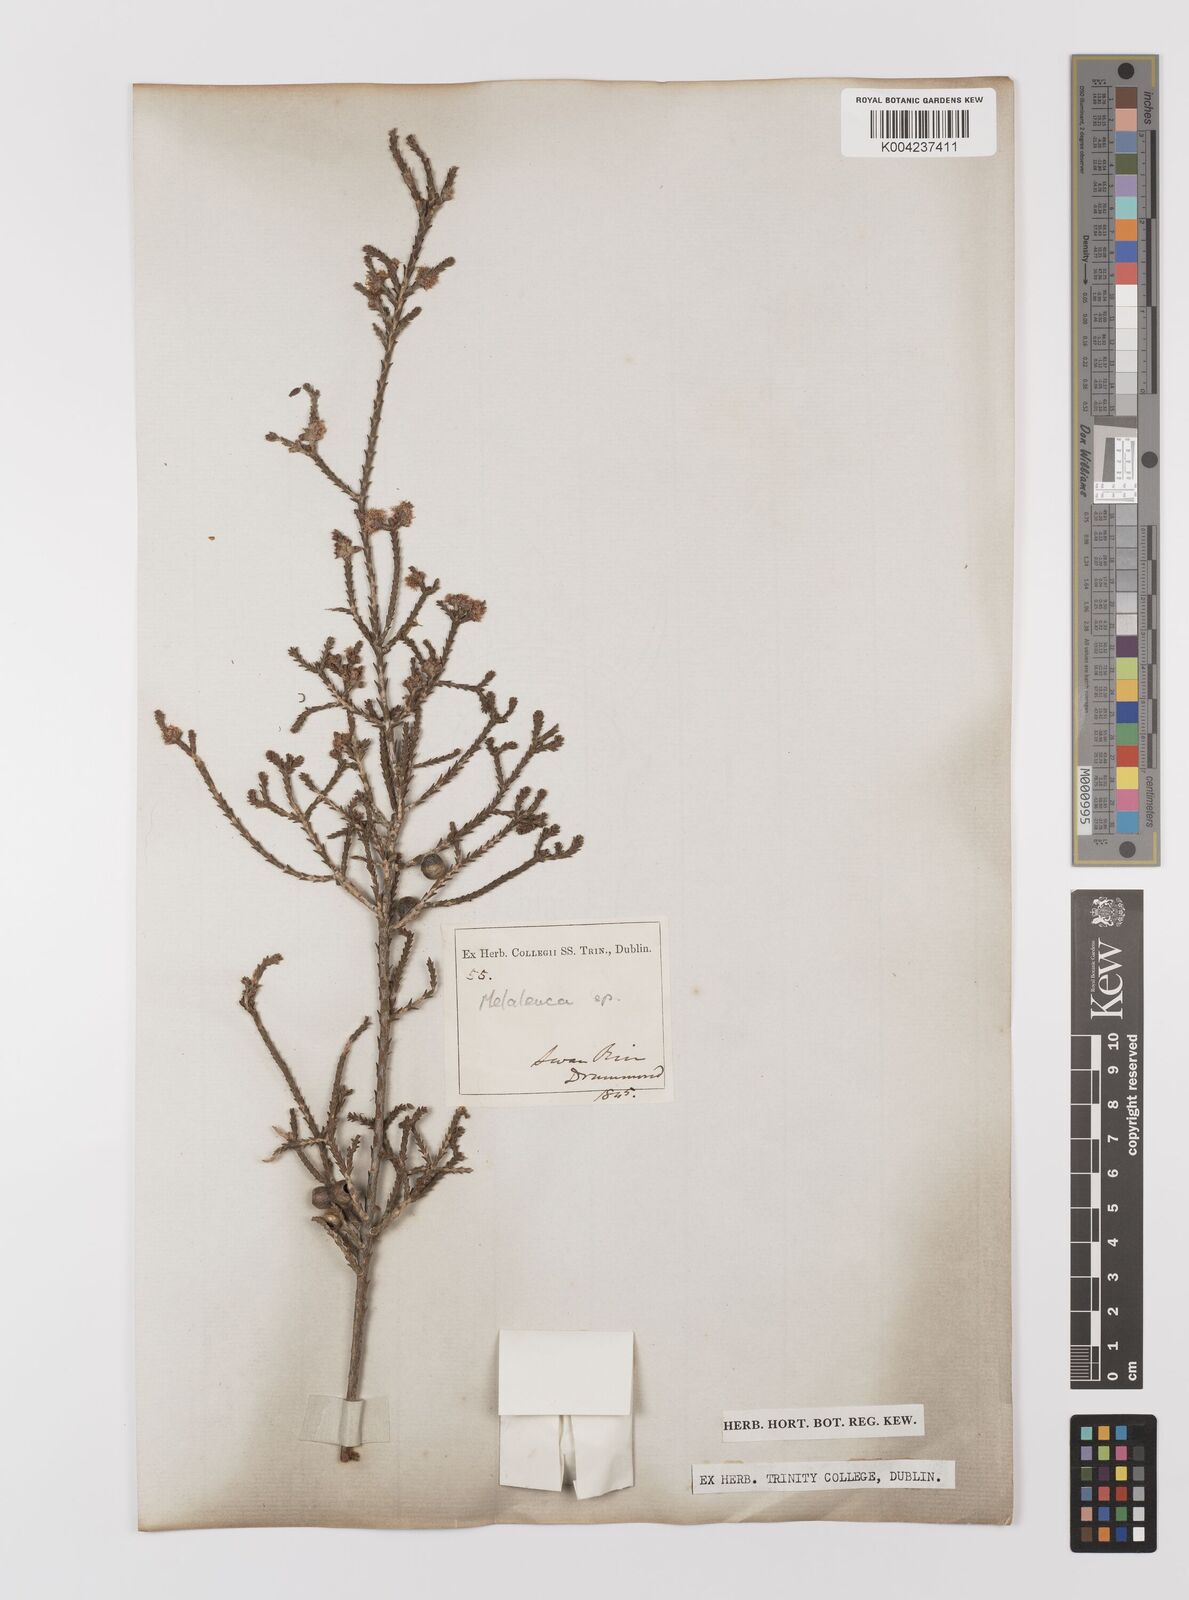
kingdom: Plantae
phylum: Tracheophyta
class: Magnoliopsida
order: Myrtales
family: Myrtaceae
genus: Melaleuca
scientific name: Melaleuca
